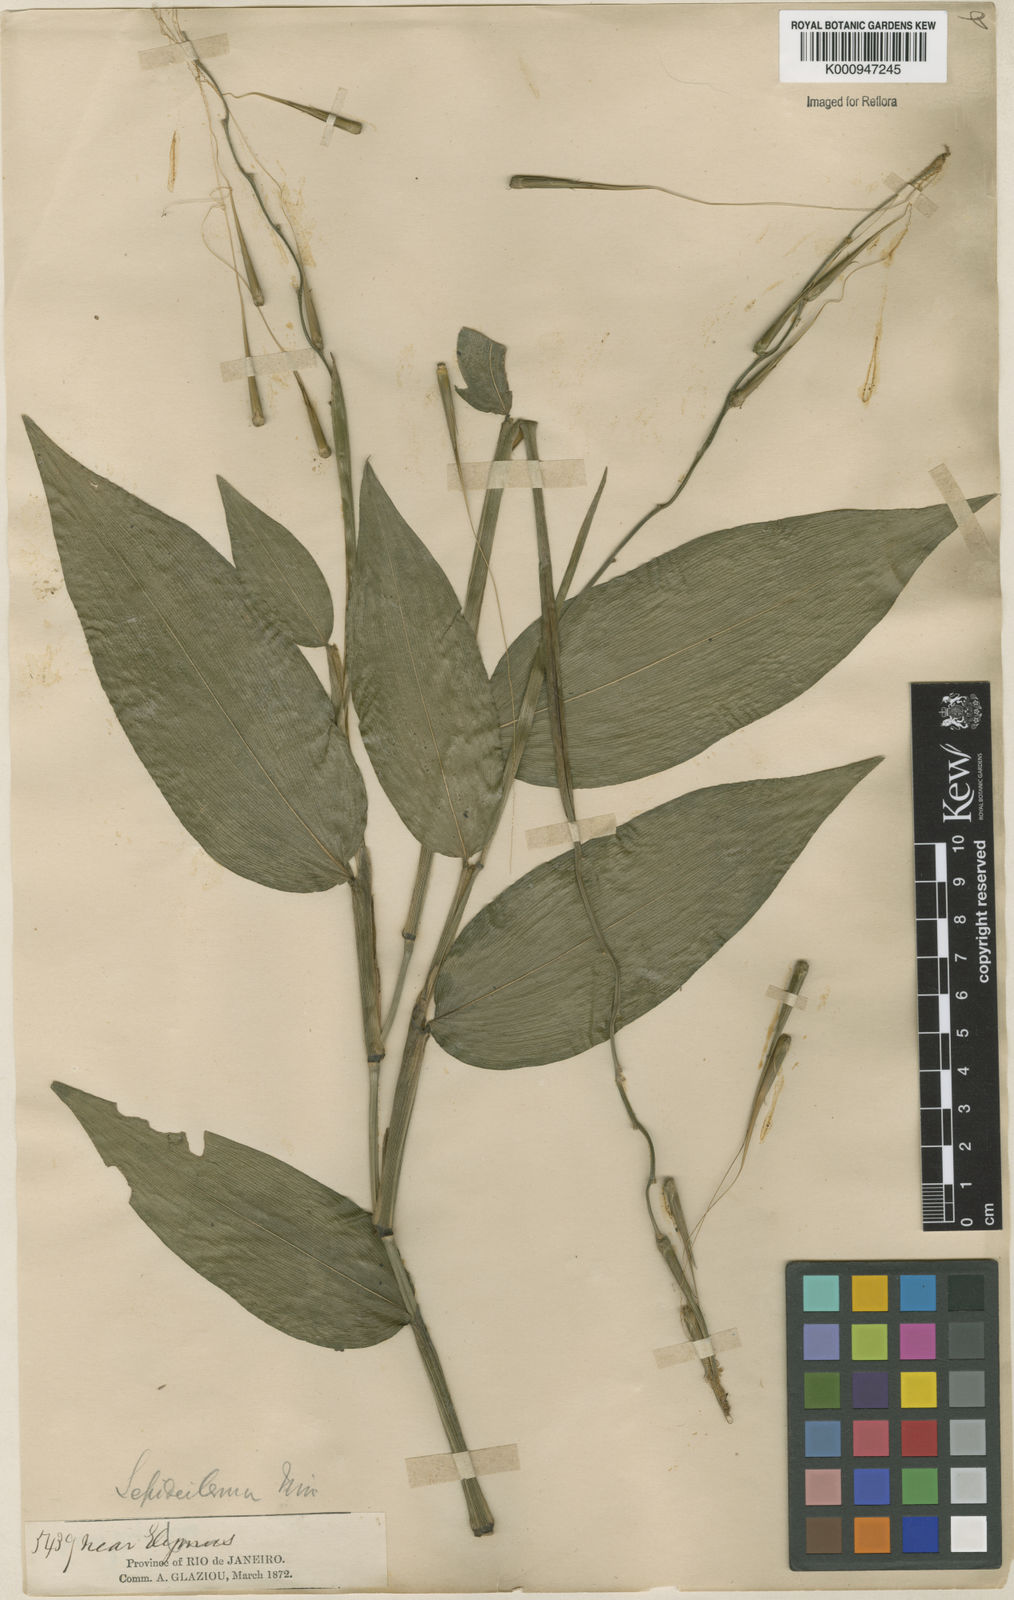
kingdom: Plantae
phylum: Tracheophyta
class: Liliopsida
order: Poales
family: Poaceae
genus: Streptochaeta
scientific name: Streptochaeta spicata
